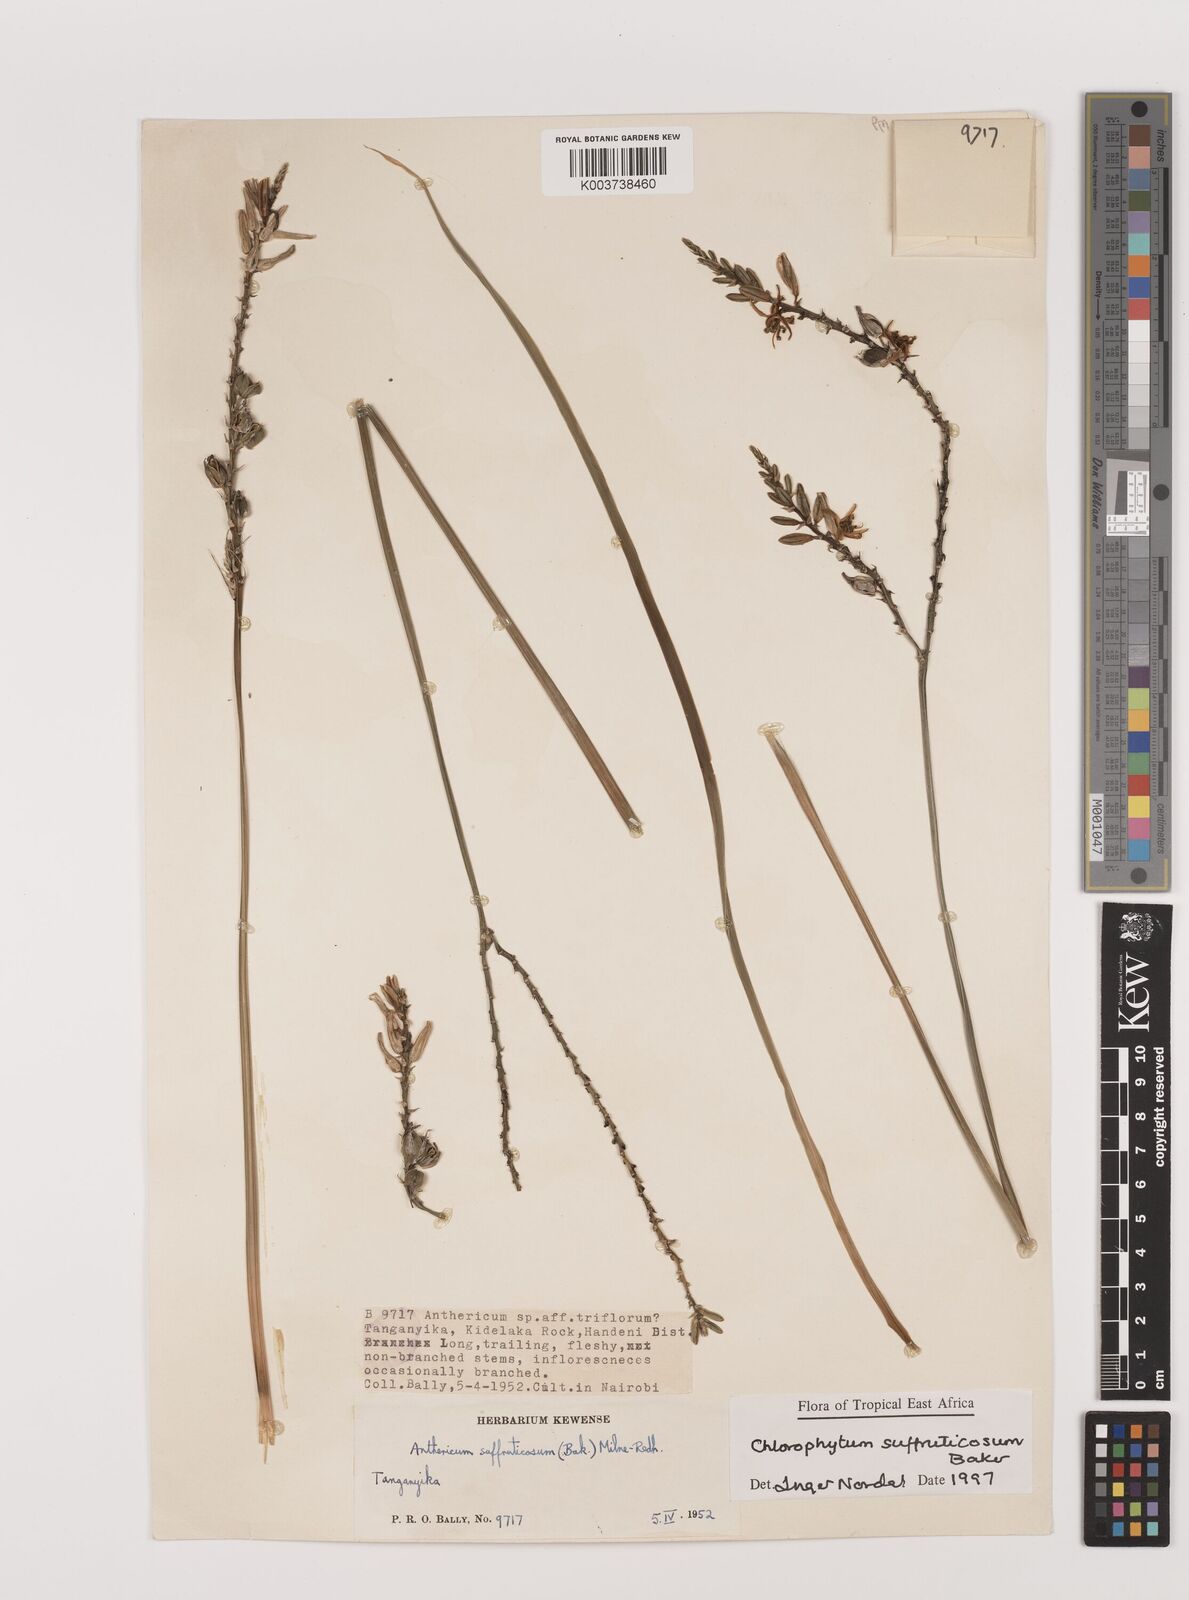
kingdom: Plantae
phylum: Tracheophyta
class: Liliopsida
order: Asparagales
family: Asparagaceae
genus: Chlorophytum
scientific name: Chlorophytum suffruticosum
